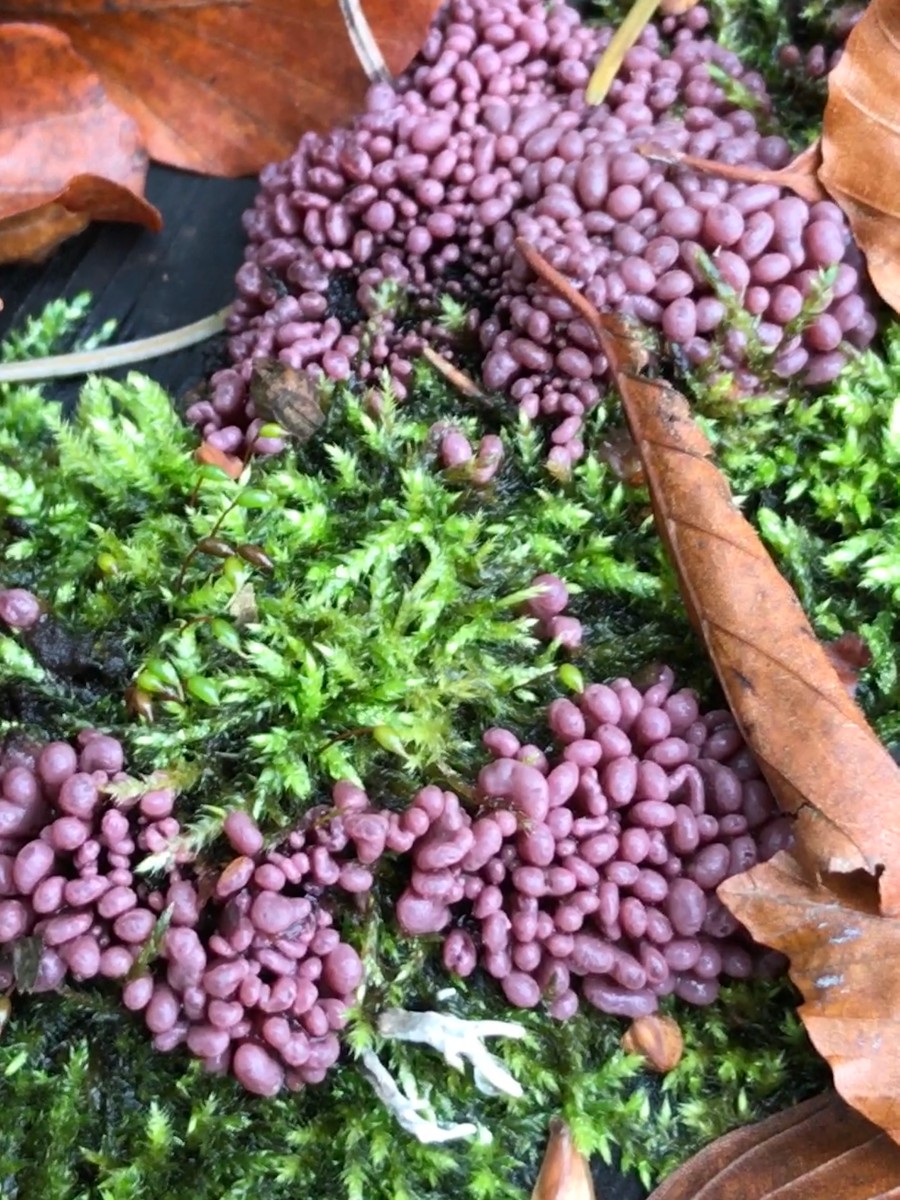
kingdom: Fungi
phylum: Ascomycota
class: Leotiomycetes
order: Helotiales
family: Gelatinodiscaceae
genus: Ascocoryne
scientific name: Ascocoryne sarcoides
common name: rødlilla sejskive
